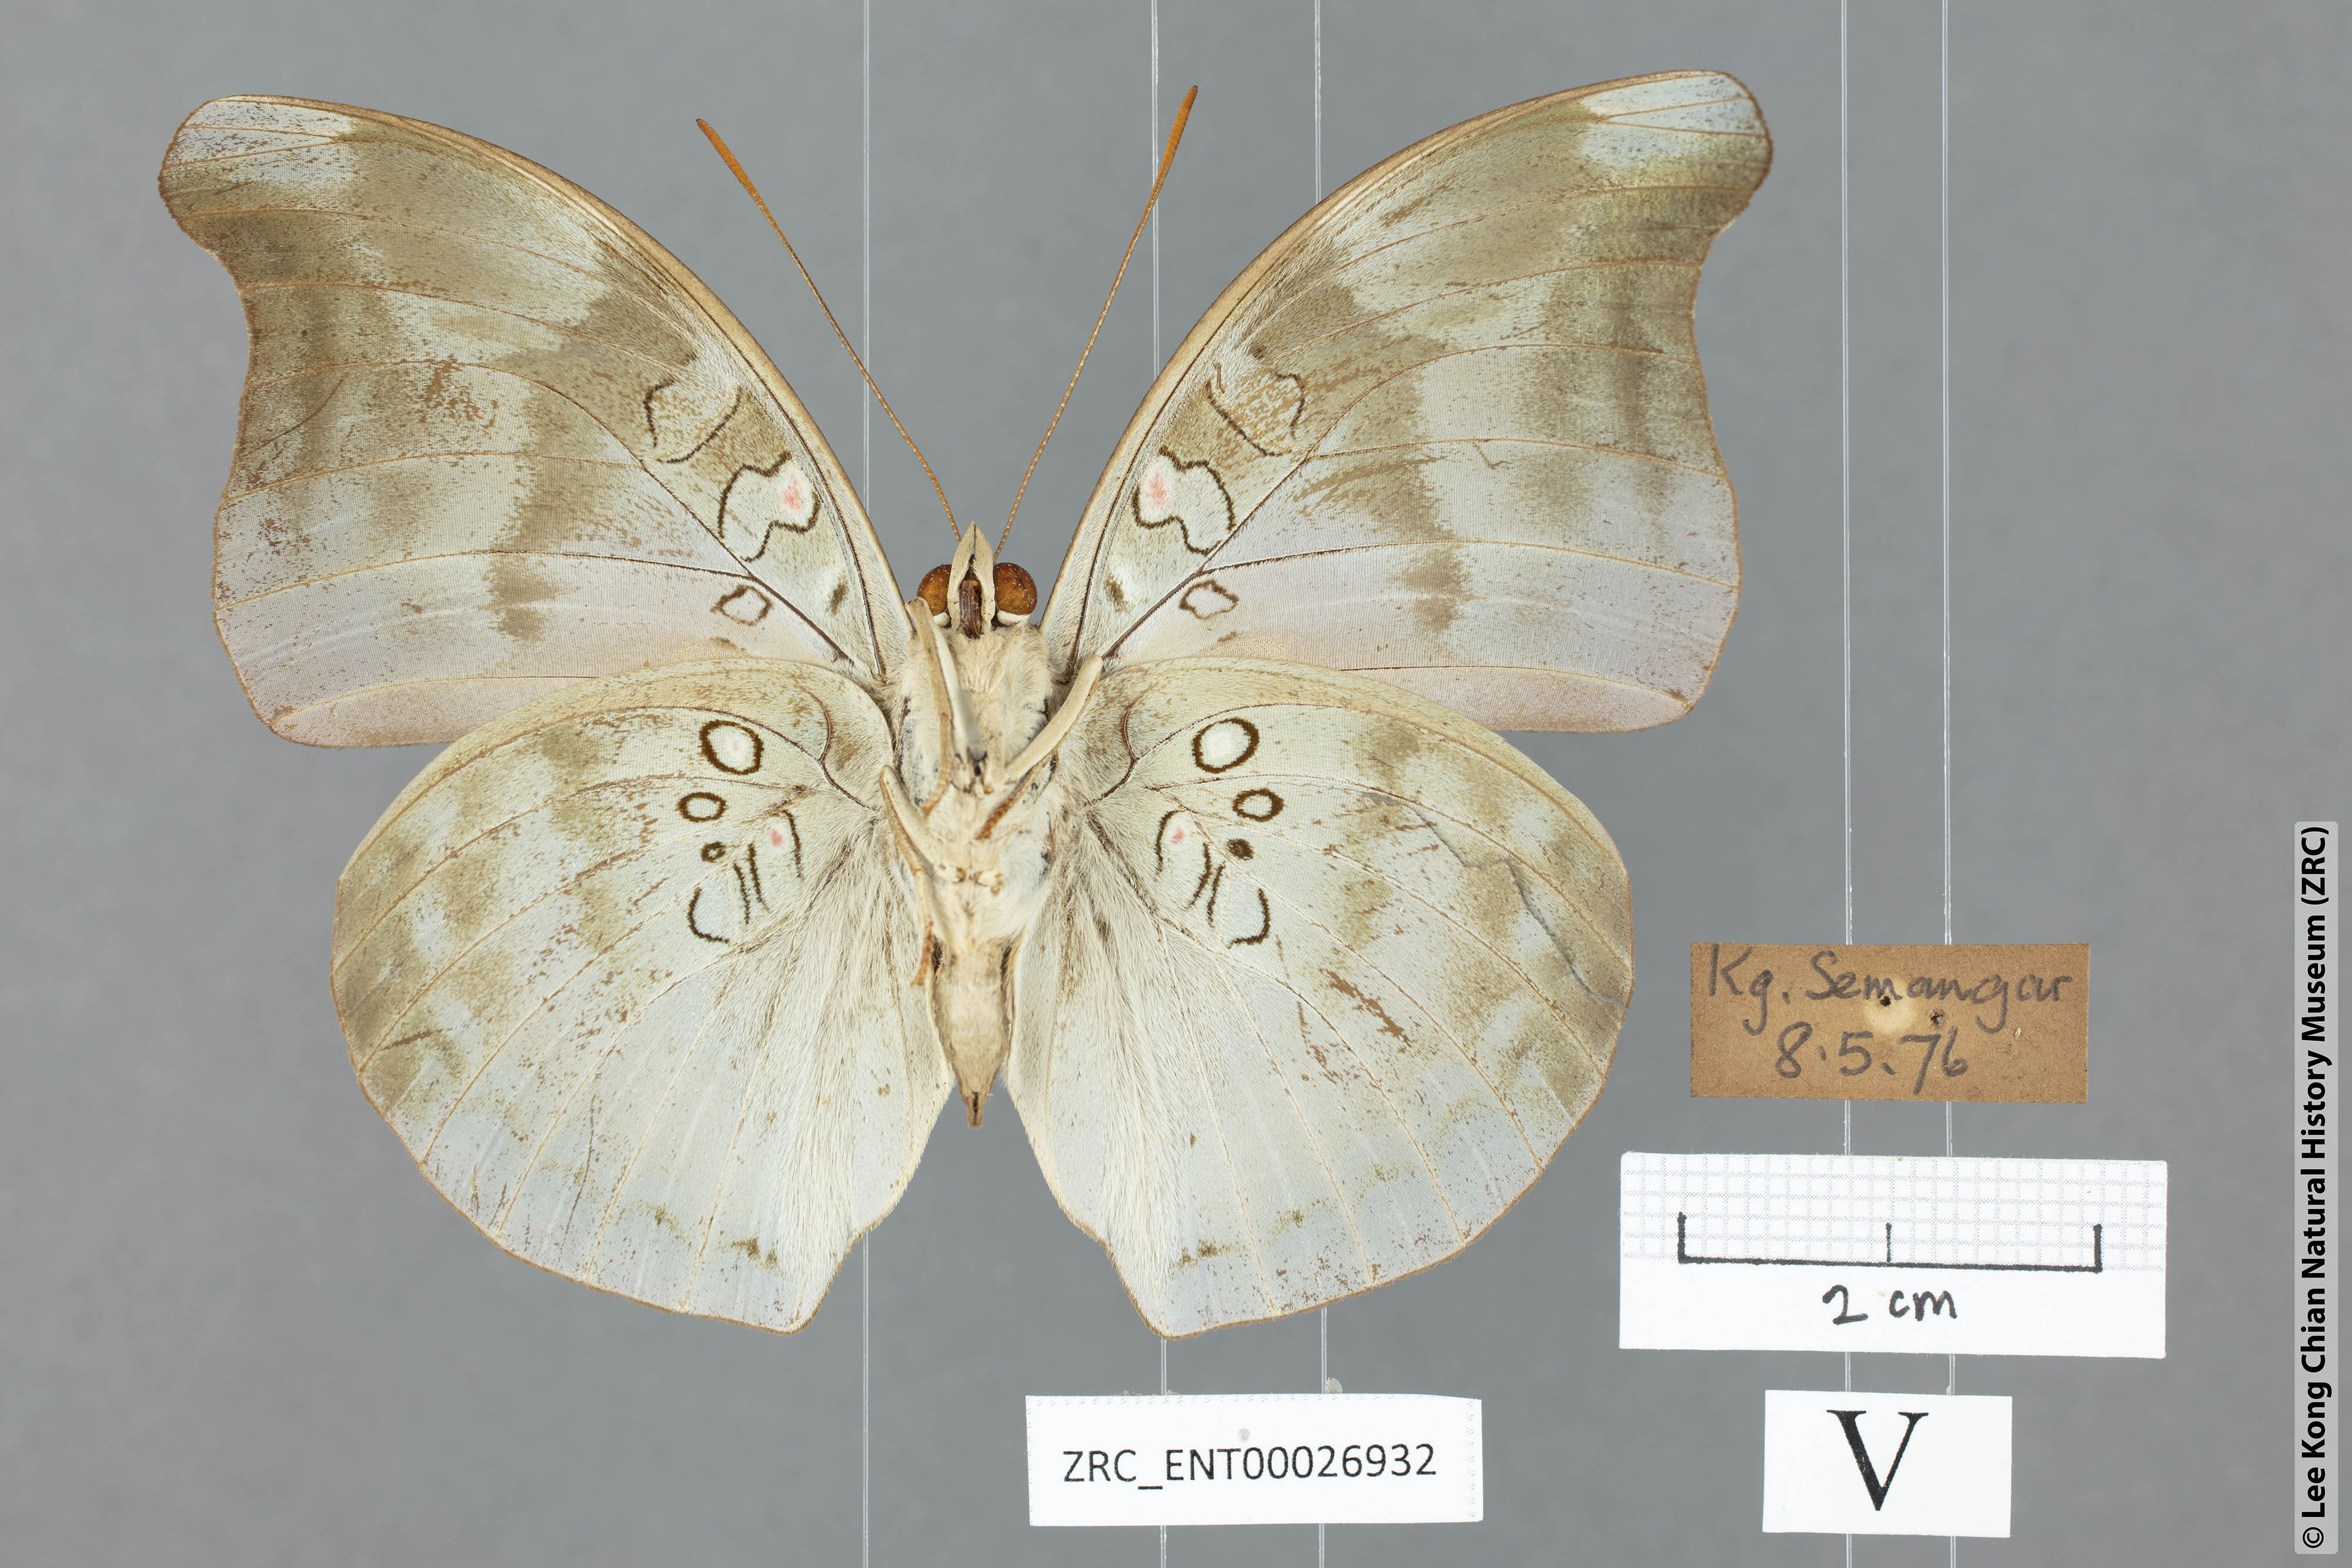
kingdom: Animalia
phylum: Arthropoda
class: Insecta
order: Lepidoptera
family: Nymphalidae
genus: Euthalia
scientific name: Euthalia Dophla evelina
